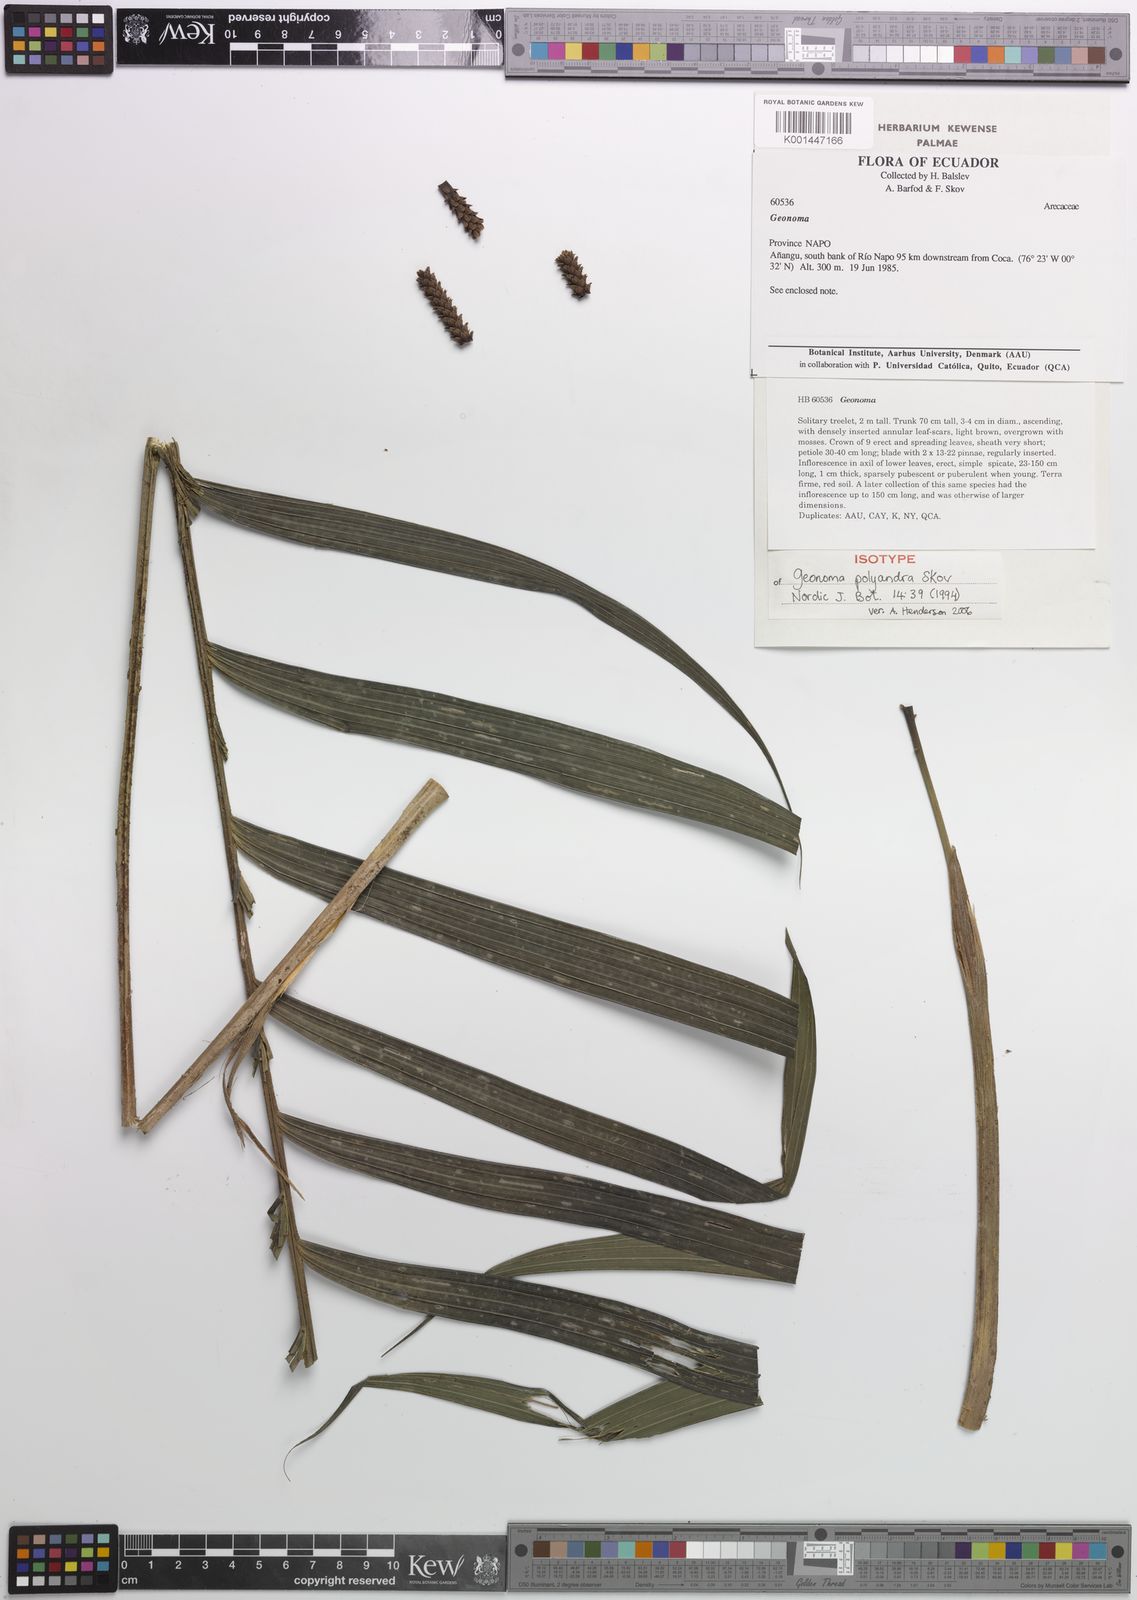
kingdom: Plantae
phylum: Tracheophyta
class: Liliopsida
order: Arecales
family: Arecaceae
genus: Geonoma
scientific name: Geonoma multisecta
